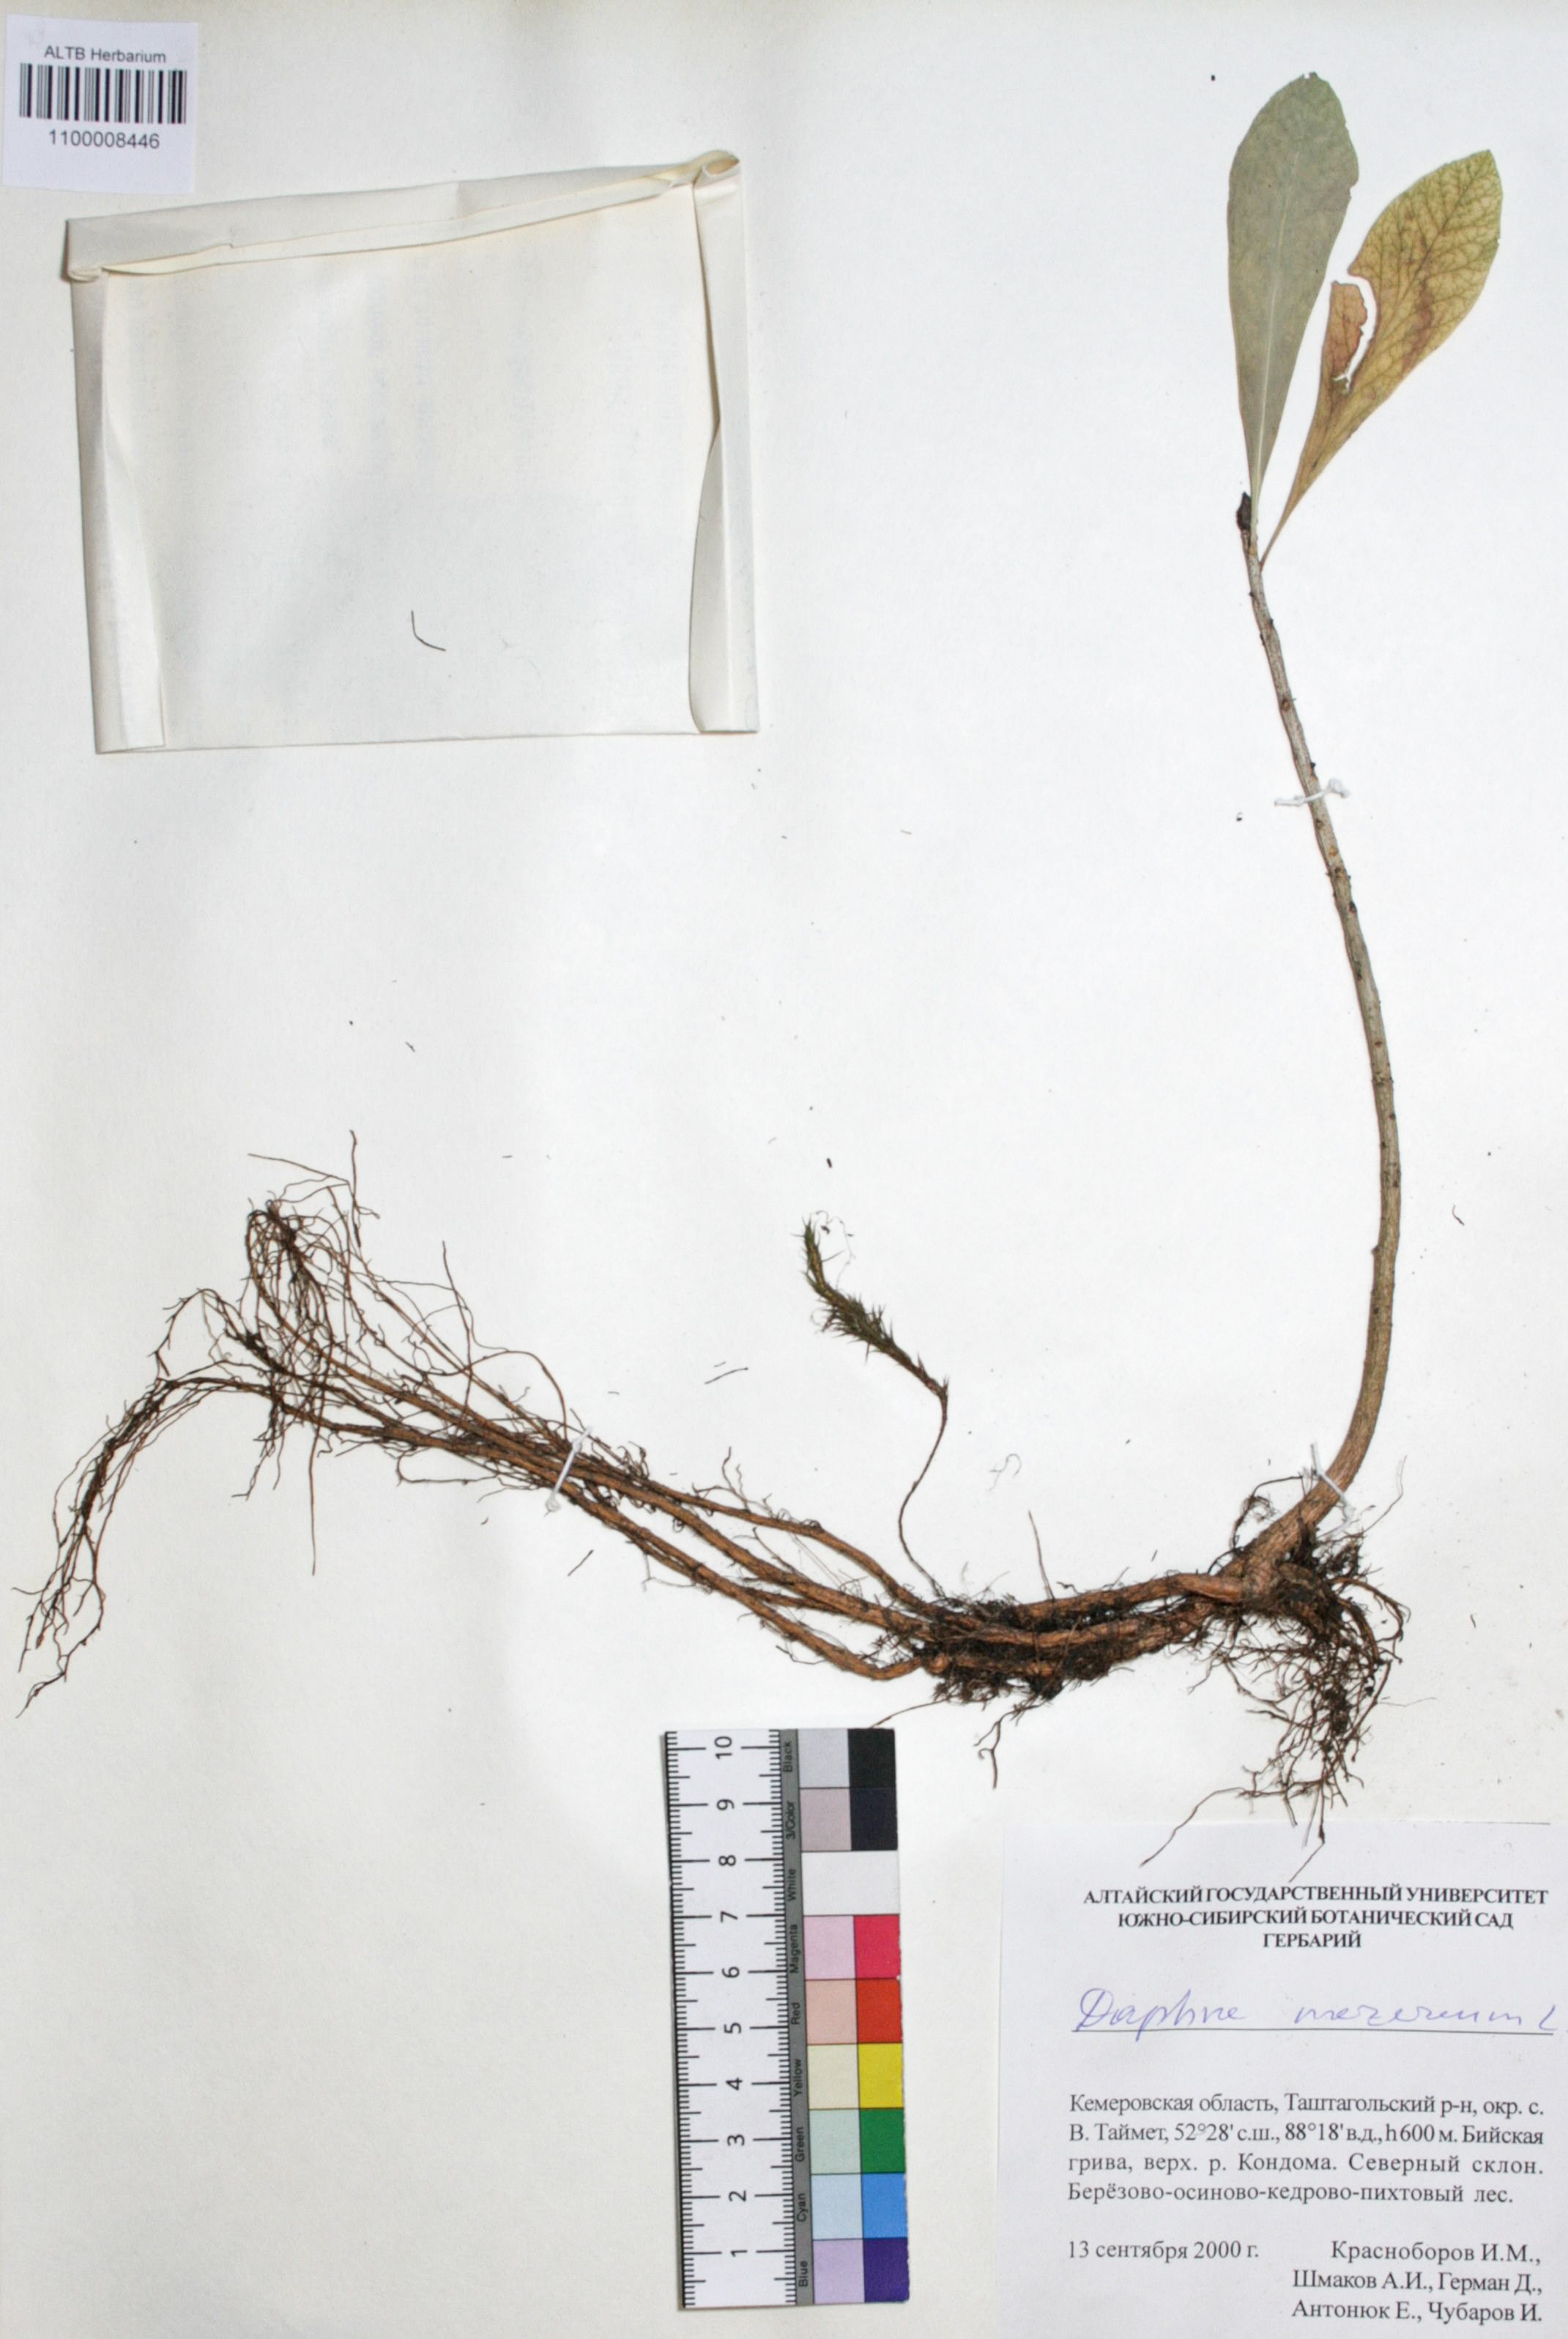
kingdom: Plantae
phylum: Tracheophyta
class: Magnoliopsida
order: Malvales
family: Thymelaeaceae
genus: Daphne
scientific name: Daphne mezereum
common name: Mezereon
